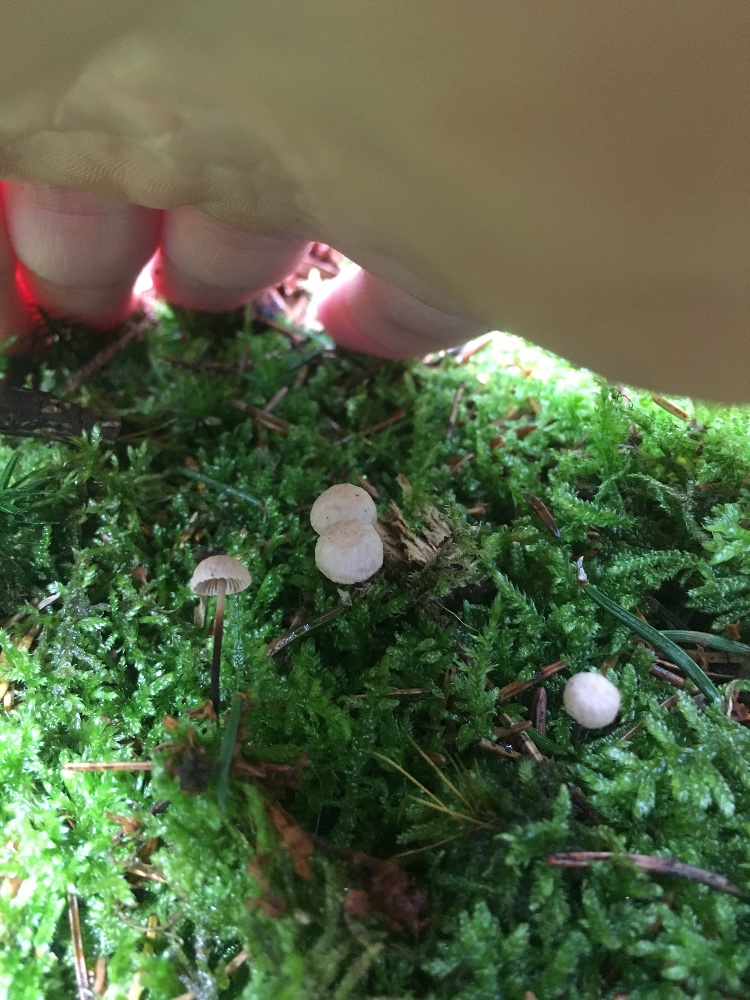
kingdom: Fungi
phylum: Basidiomycota
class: Agaricomycetes
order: Agaricales
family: Omphalotaceae
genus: Paragymnopus
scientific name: Paragymnopus perforans
